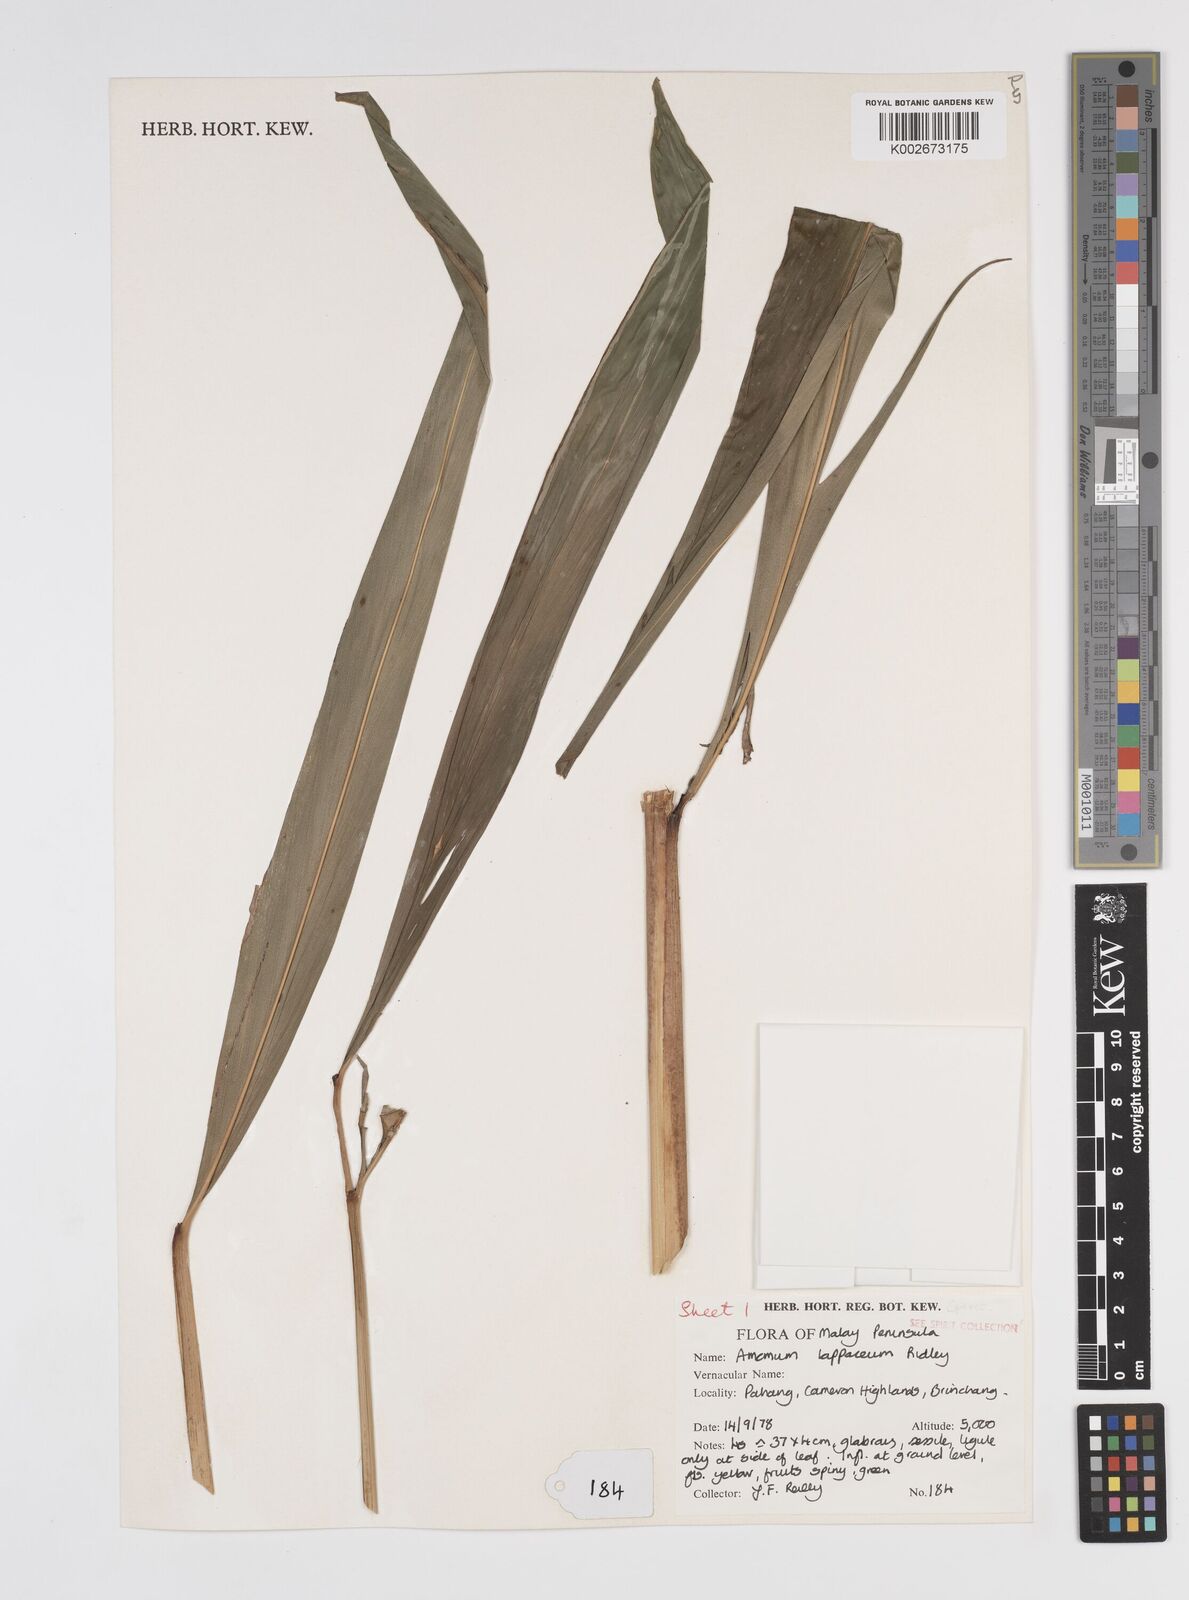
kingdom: Plantae
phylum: Tracheophyta
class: Liliopsida
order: Zingiberales
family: Zingiberaceae
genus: Meistera
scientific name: Meistera lappacea
